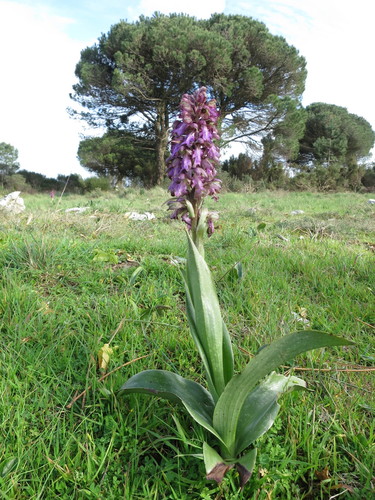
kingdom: Plantae
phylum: Tracheophyta
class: Liliopsida
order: Asparagales
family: Orchidaceae
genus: Himantoglossum
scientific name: Himantoglossum robertianum
